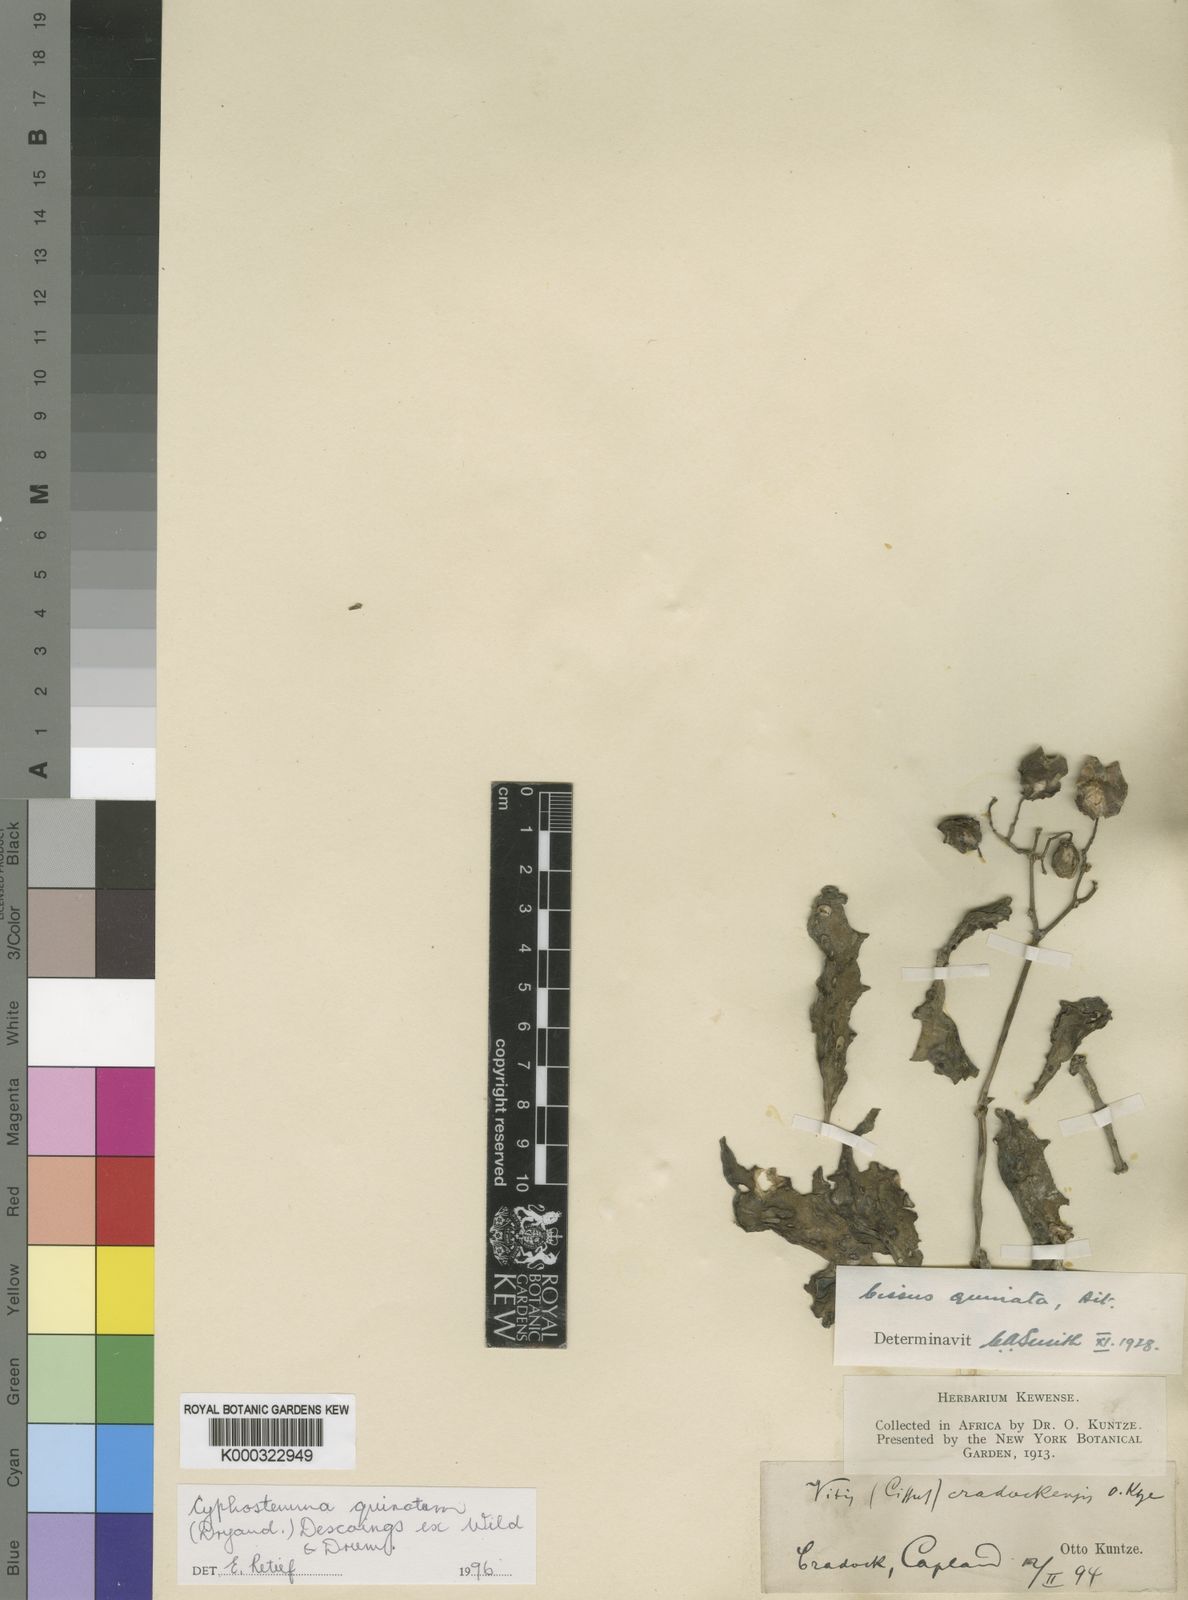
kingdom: Plantae
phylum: Tracheophyta
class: Magnoliopsida
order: Vitales
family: Vitaceae
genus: Cyphostemma
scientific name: Cyphostemma quinatum
